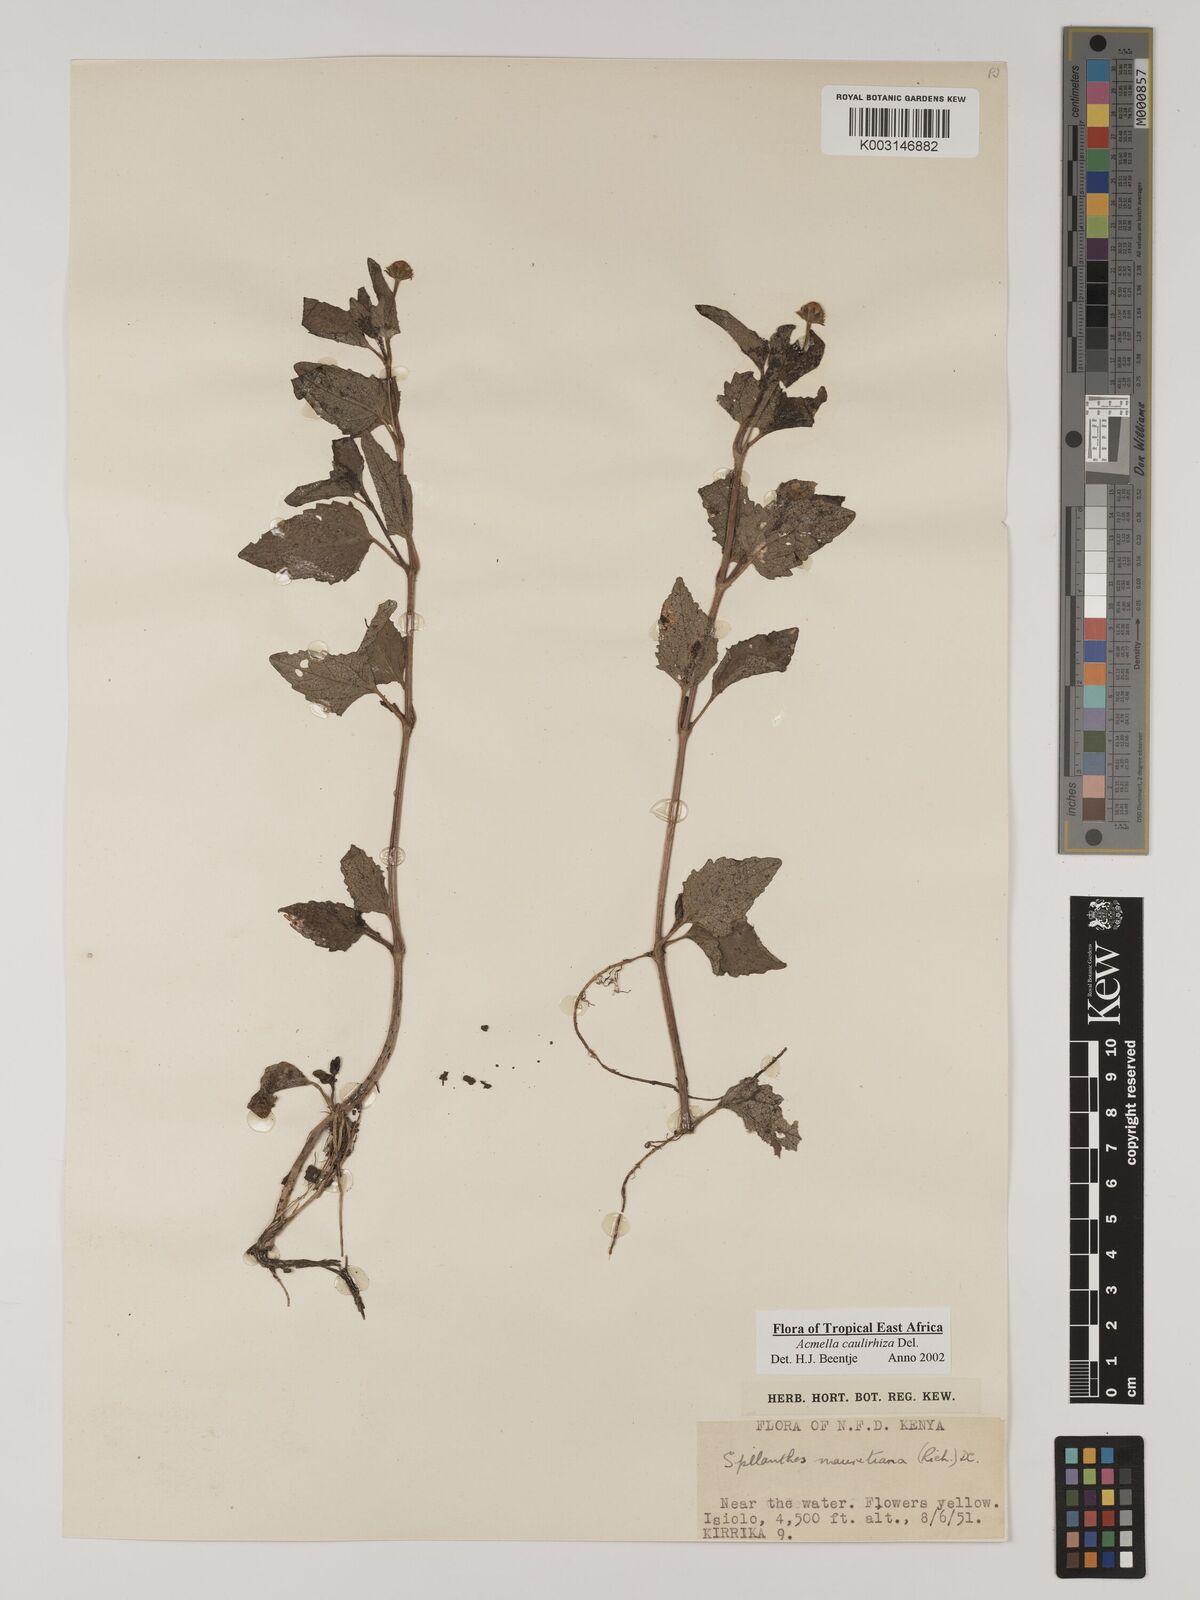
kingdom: Plantae
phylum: Tracheophyta
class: Magnoliopsida
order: Asterales
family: Asteraceae
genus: Acmella
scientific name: Acmella caulirhiza
